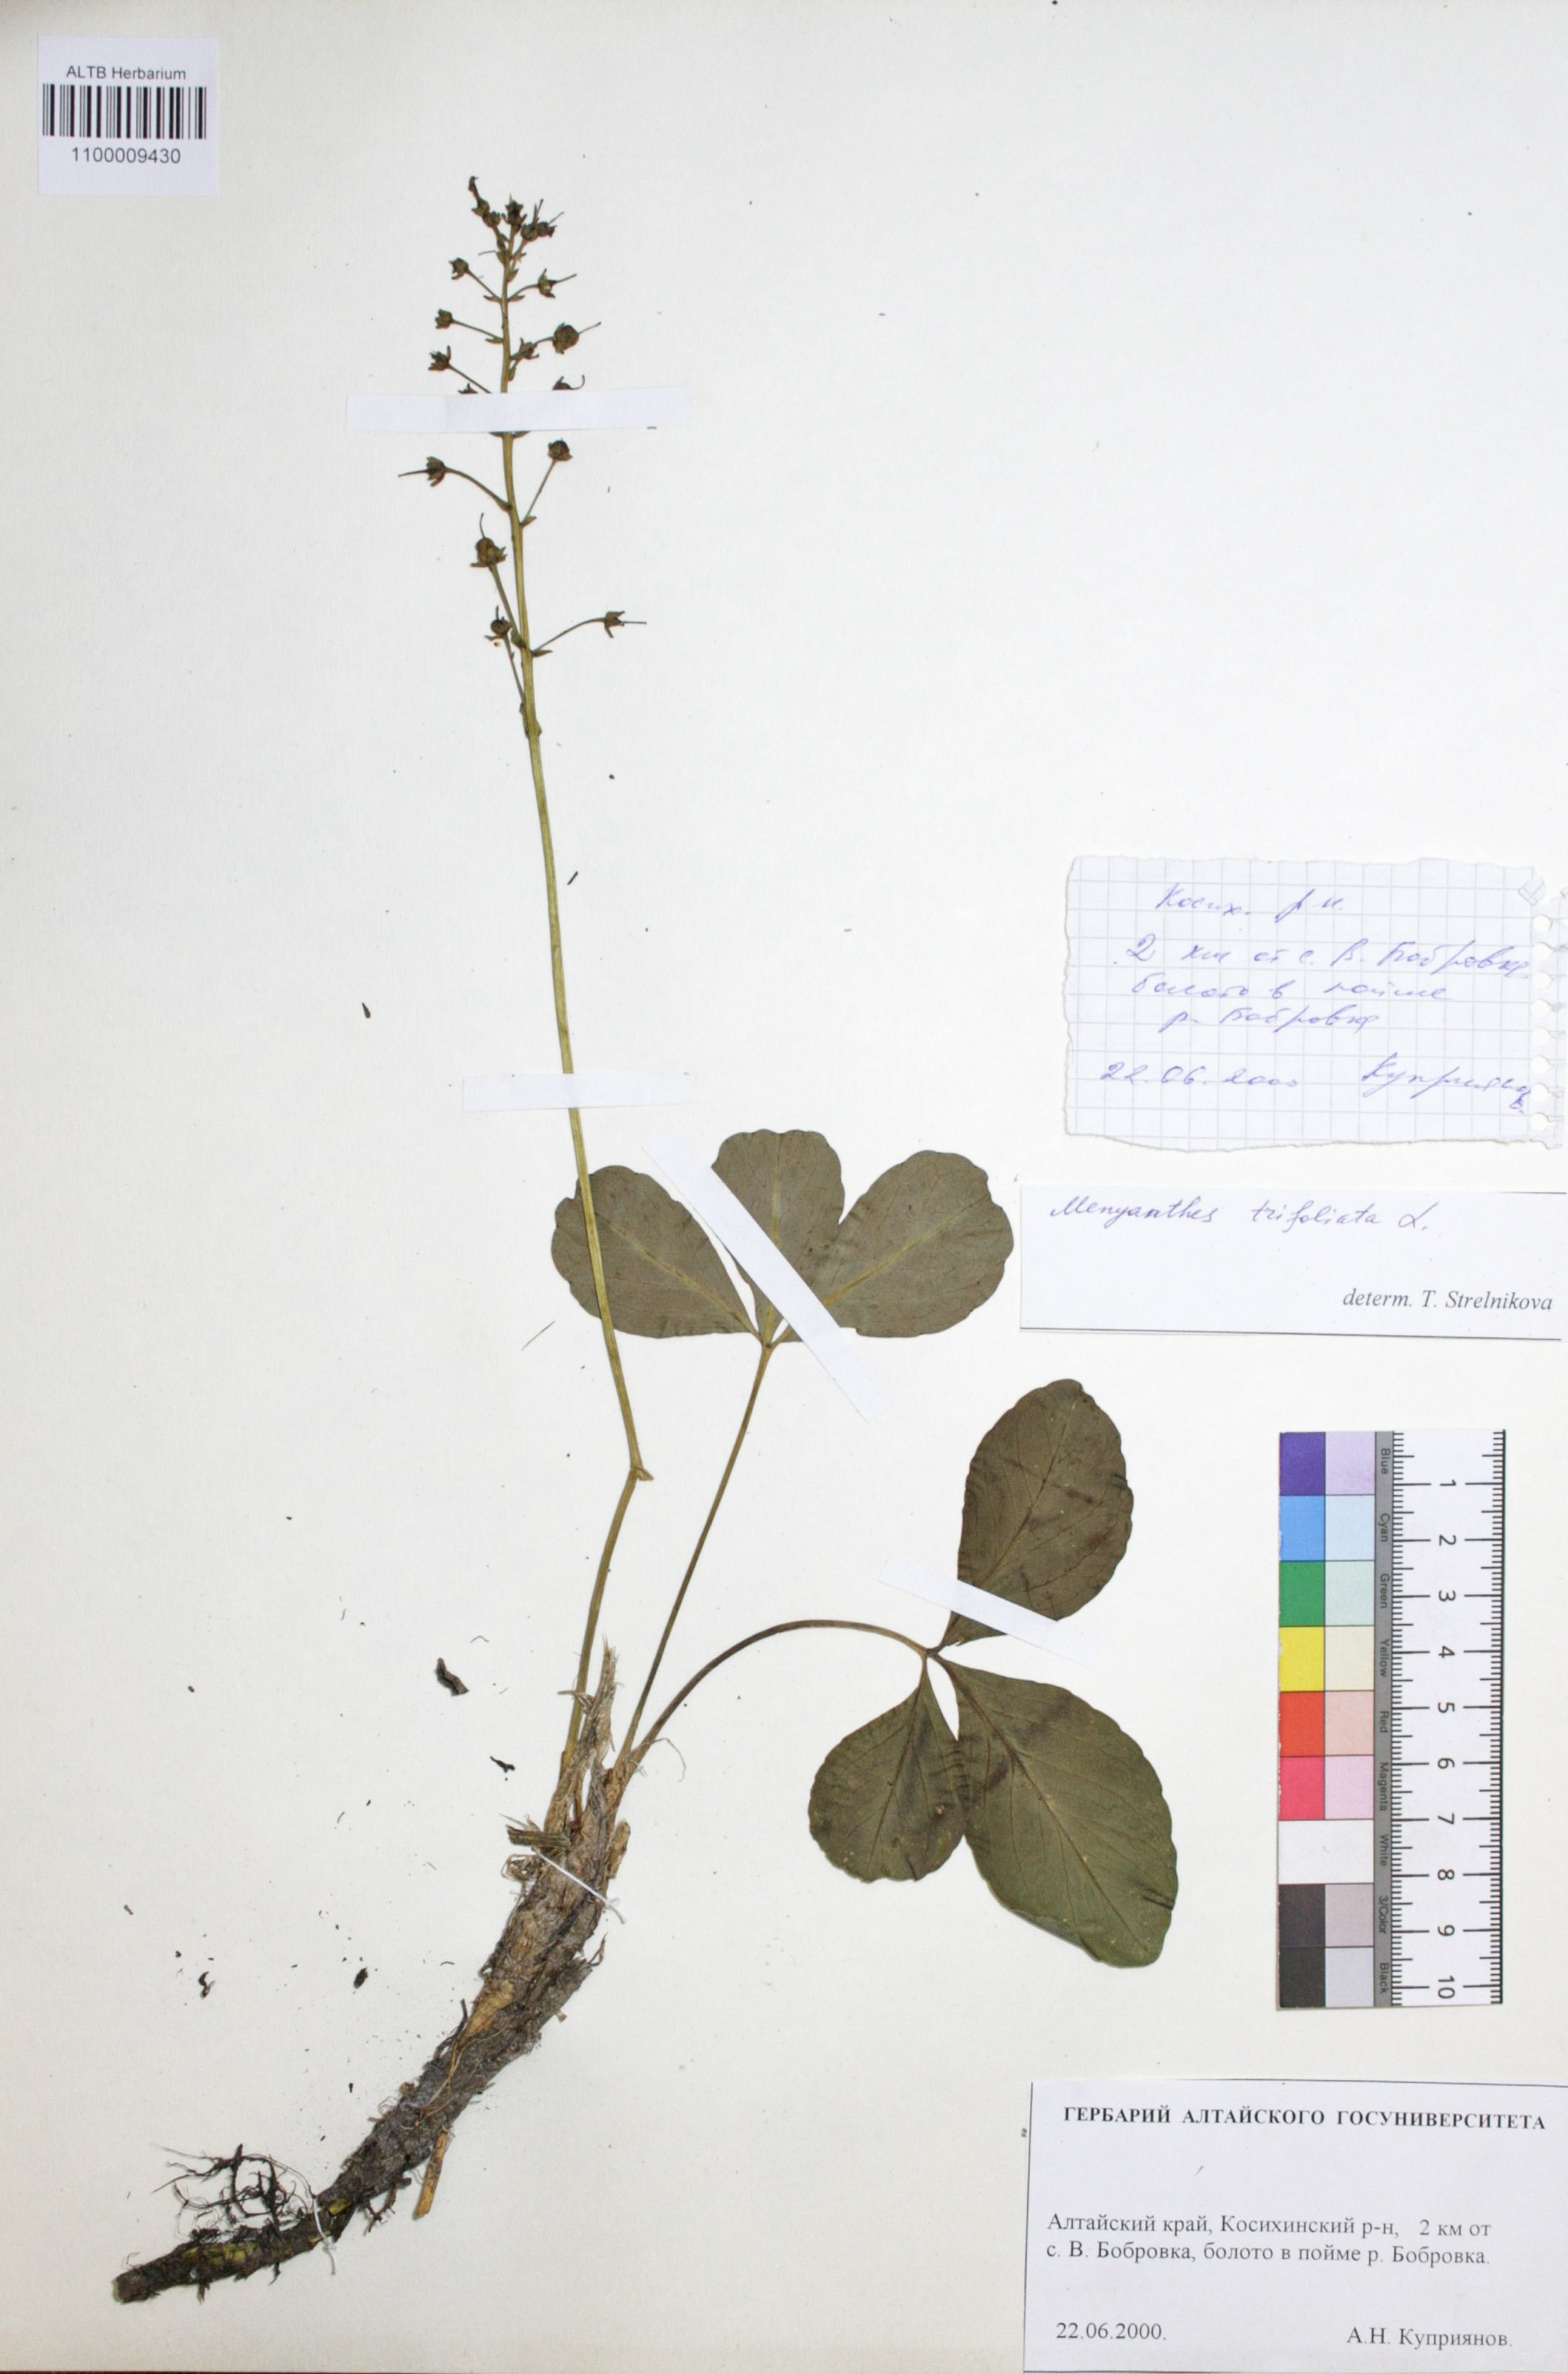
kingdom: Plantae
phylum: Tracheophyta
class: Magnoliopsida
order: Asterales
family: Menyanthaceae
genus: Menyanthes
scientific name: Menyanthes trifoliata
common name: Bogbean
